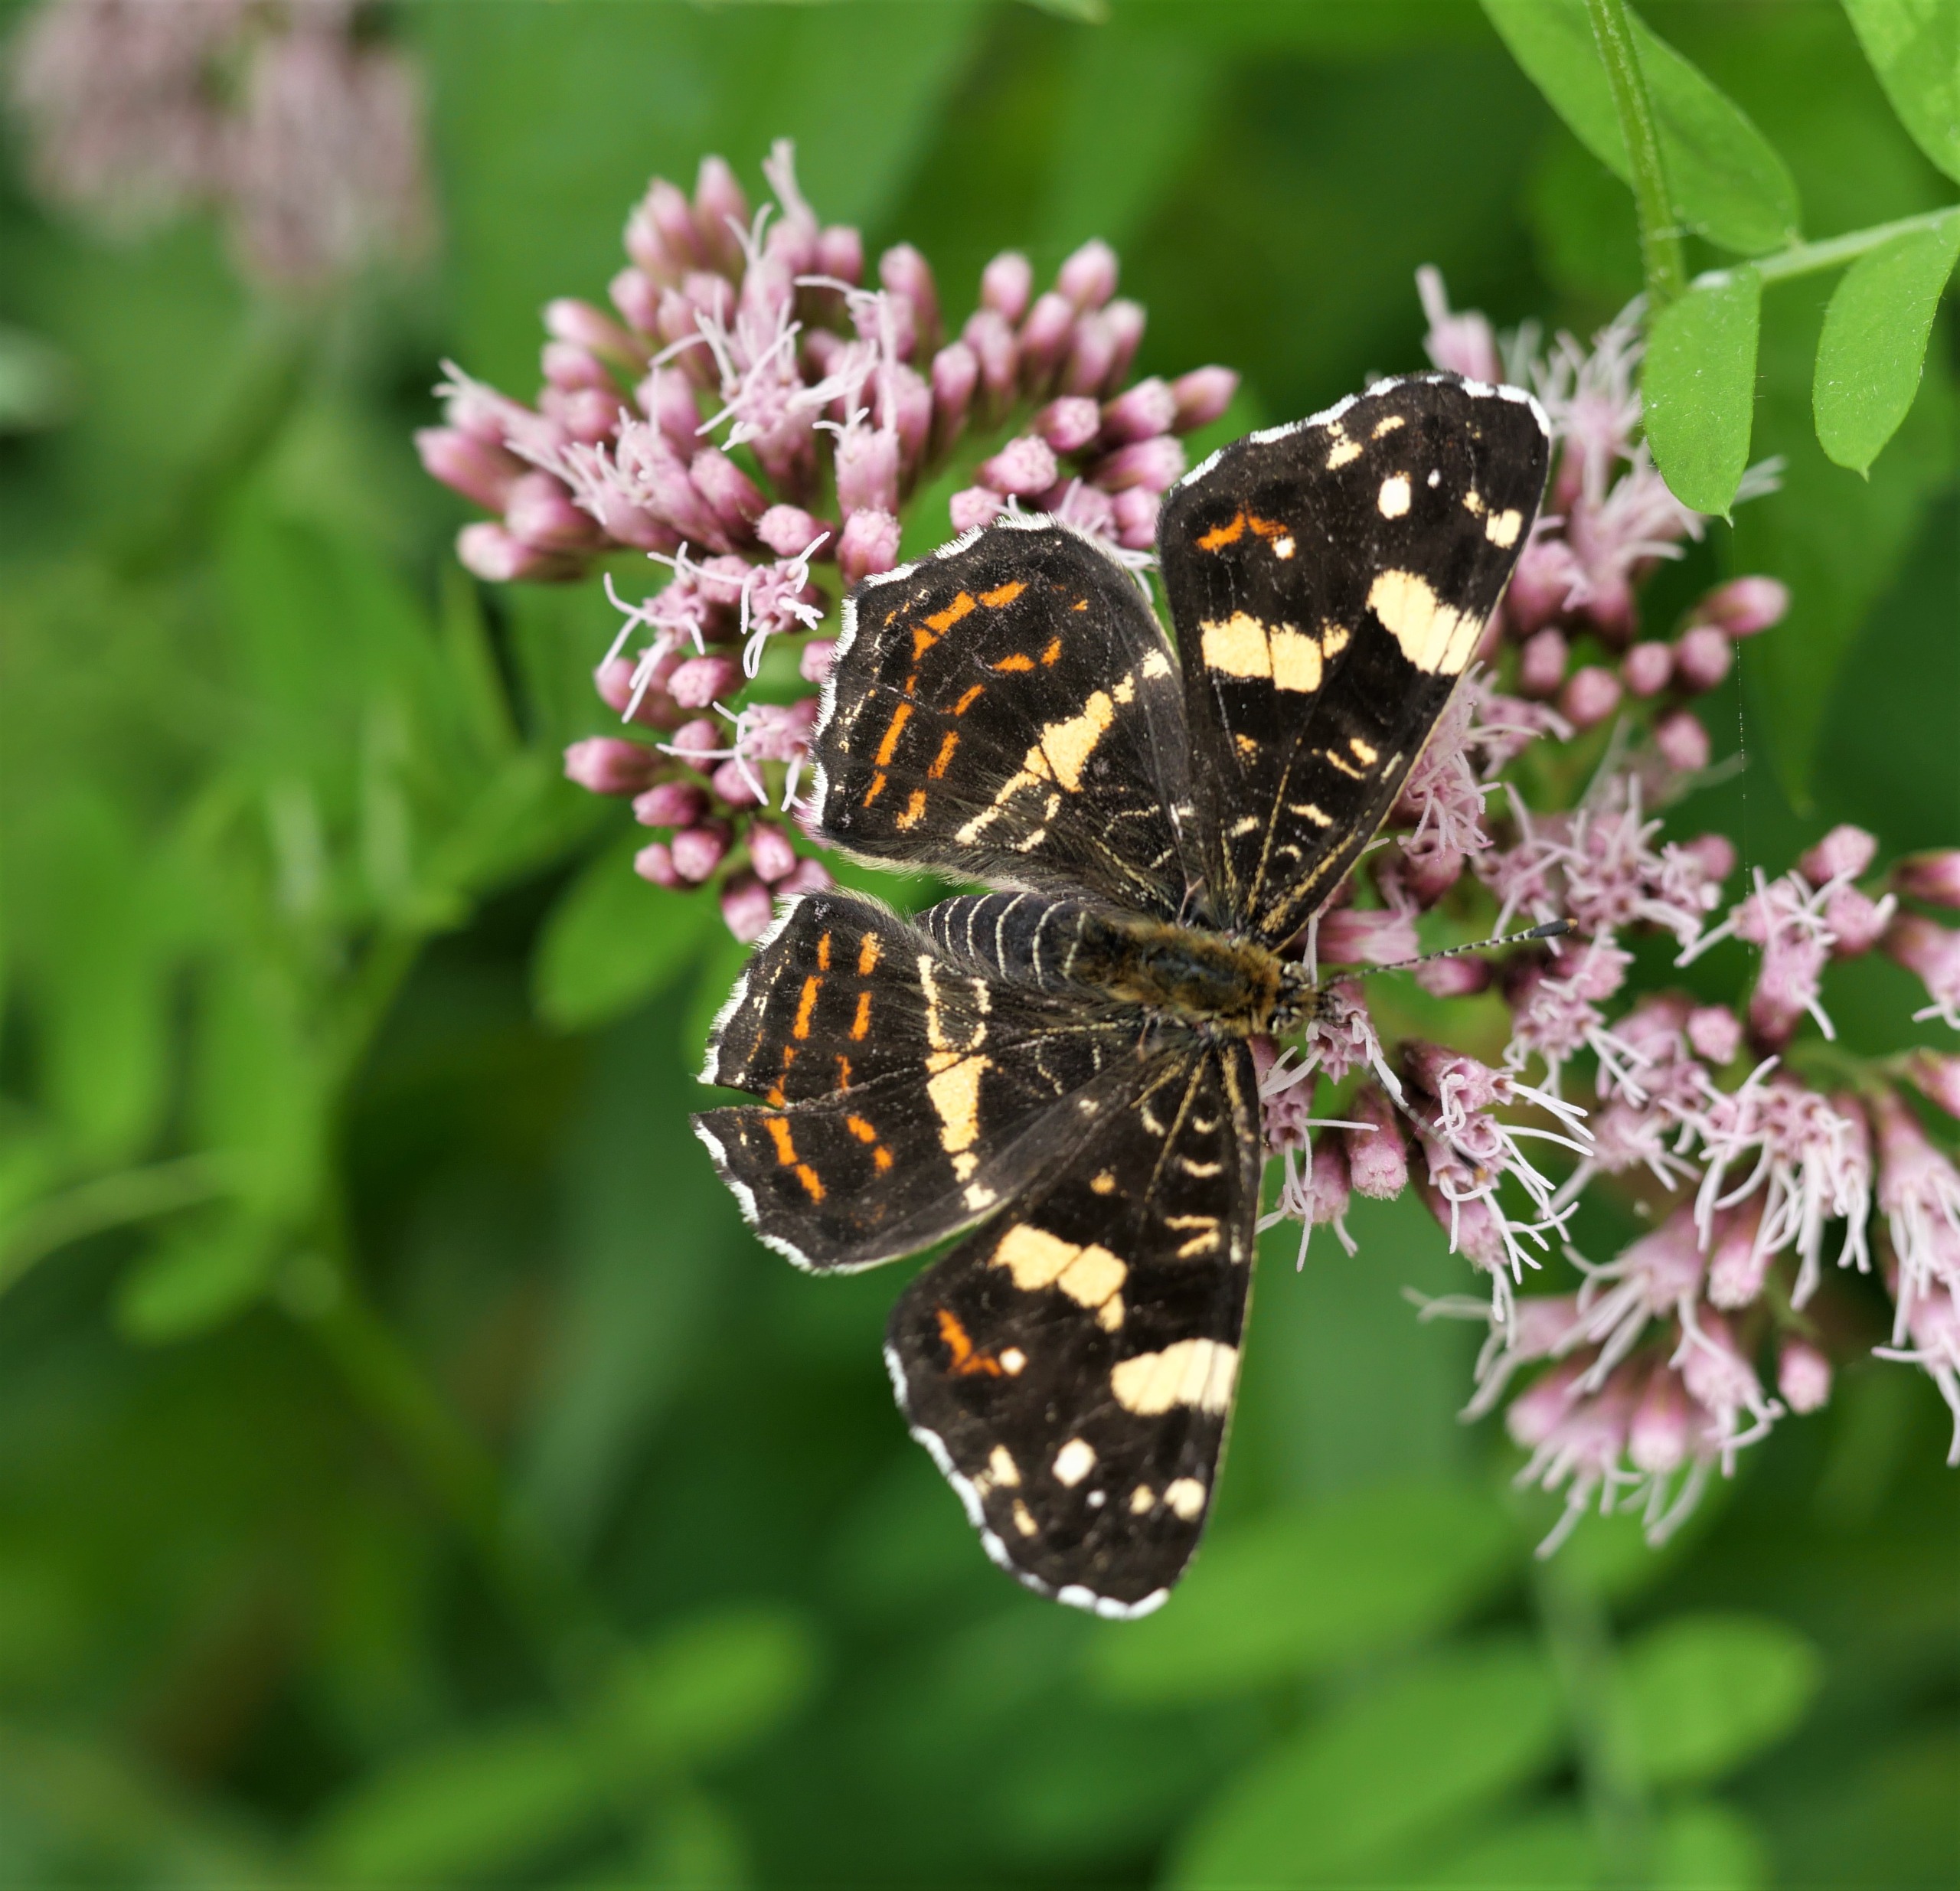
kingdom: Animalia
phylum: Arthropoda
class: Insecta
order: Lepidoptera
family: Nymphalidae
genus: Araschnia
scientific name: Araschnia levana
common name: Nældesommerfugl
